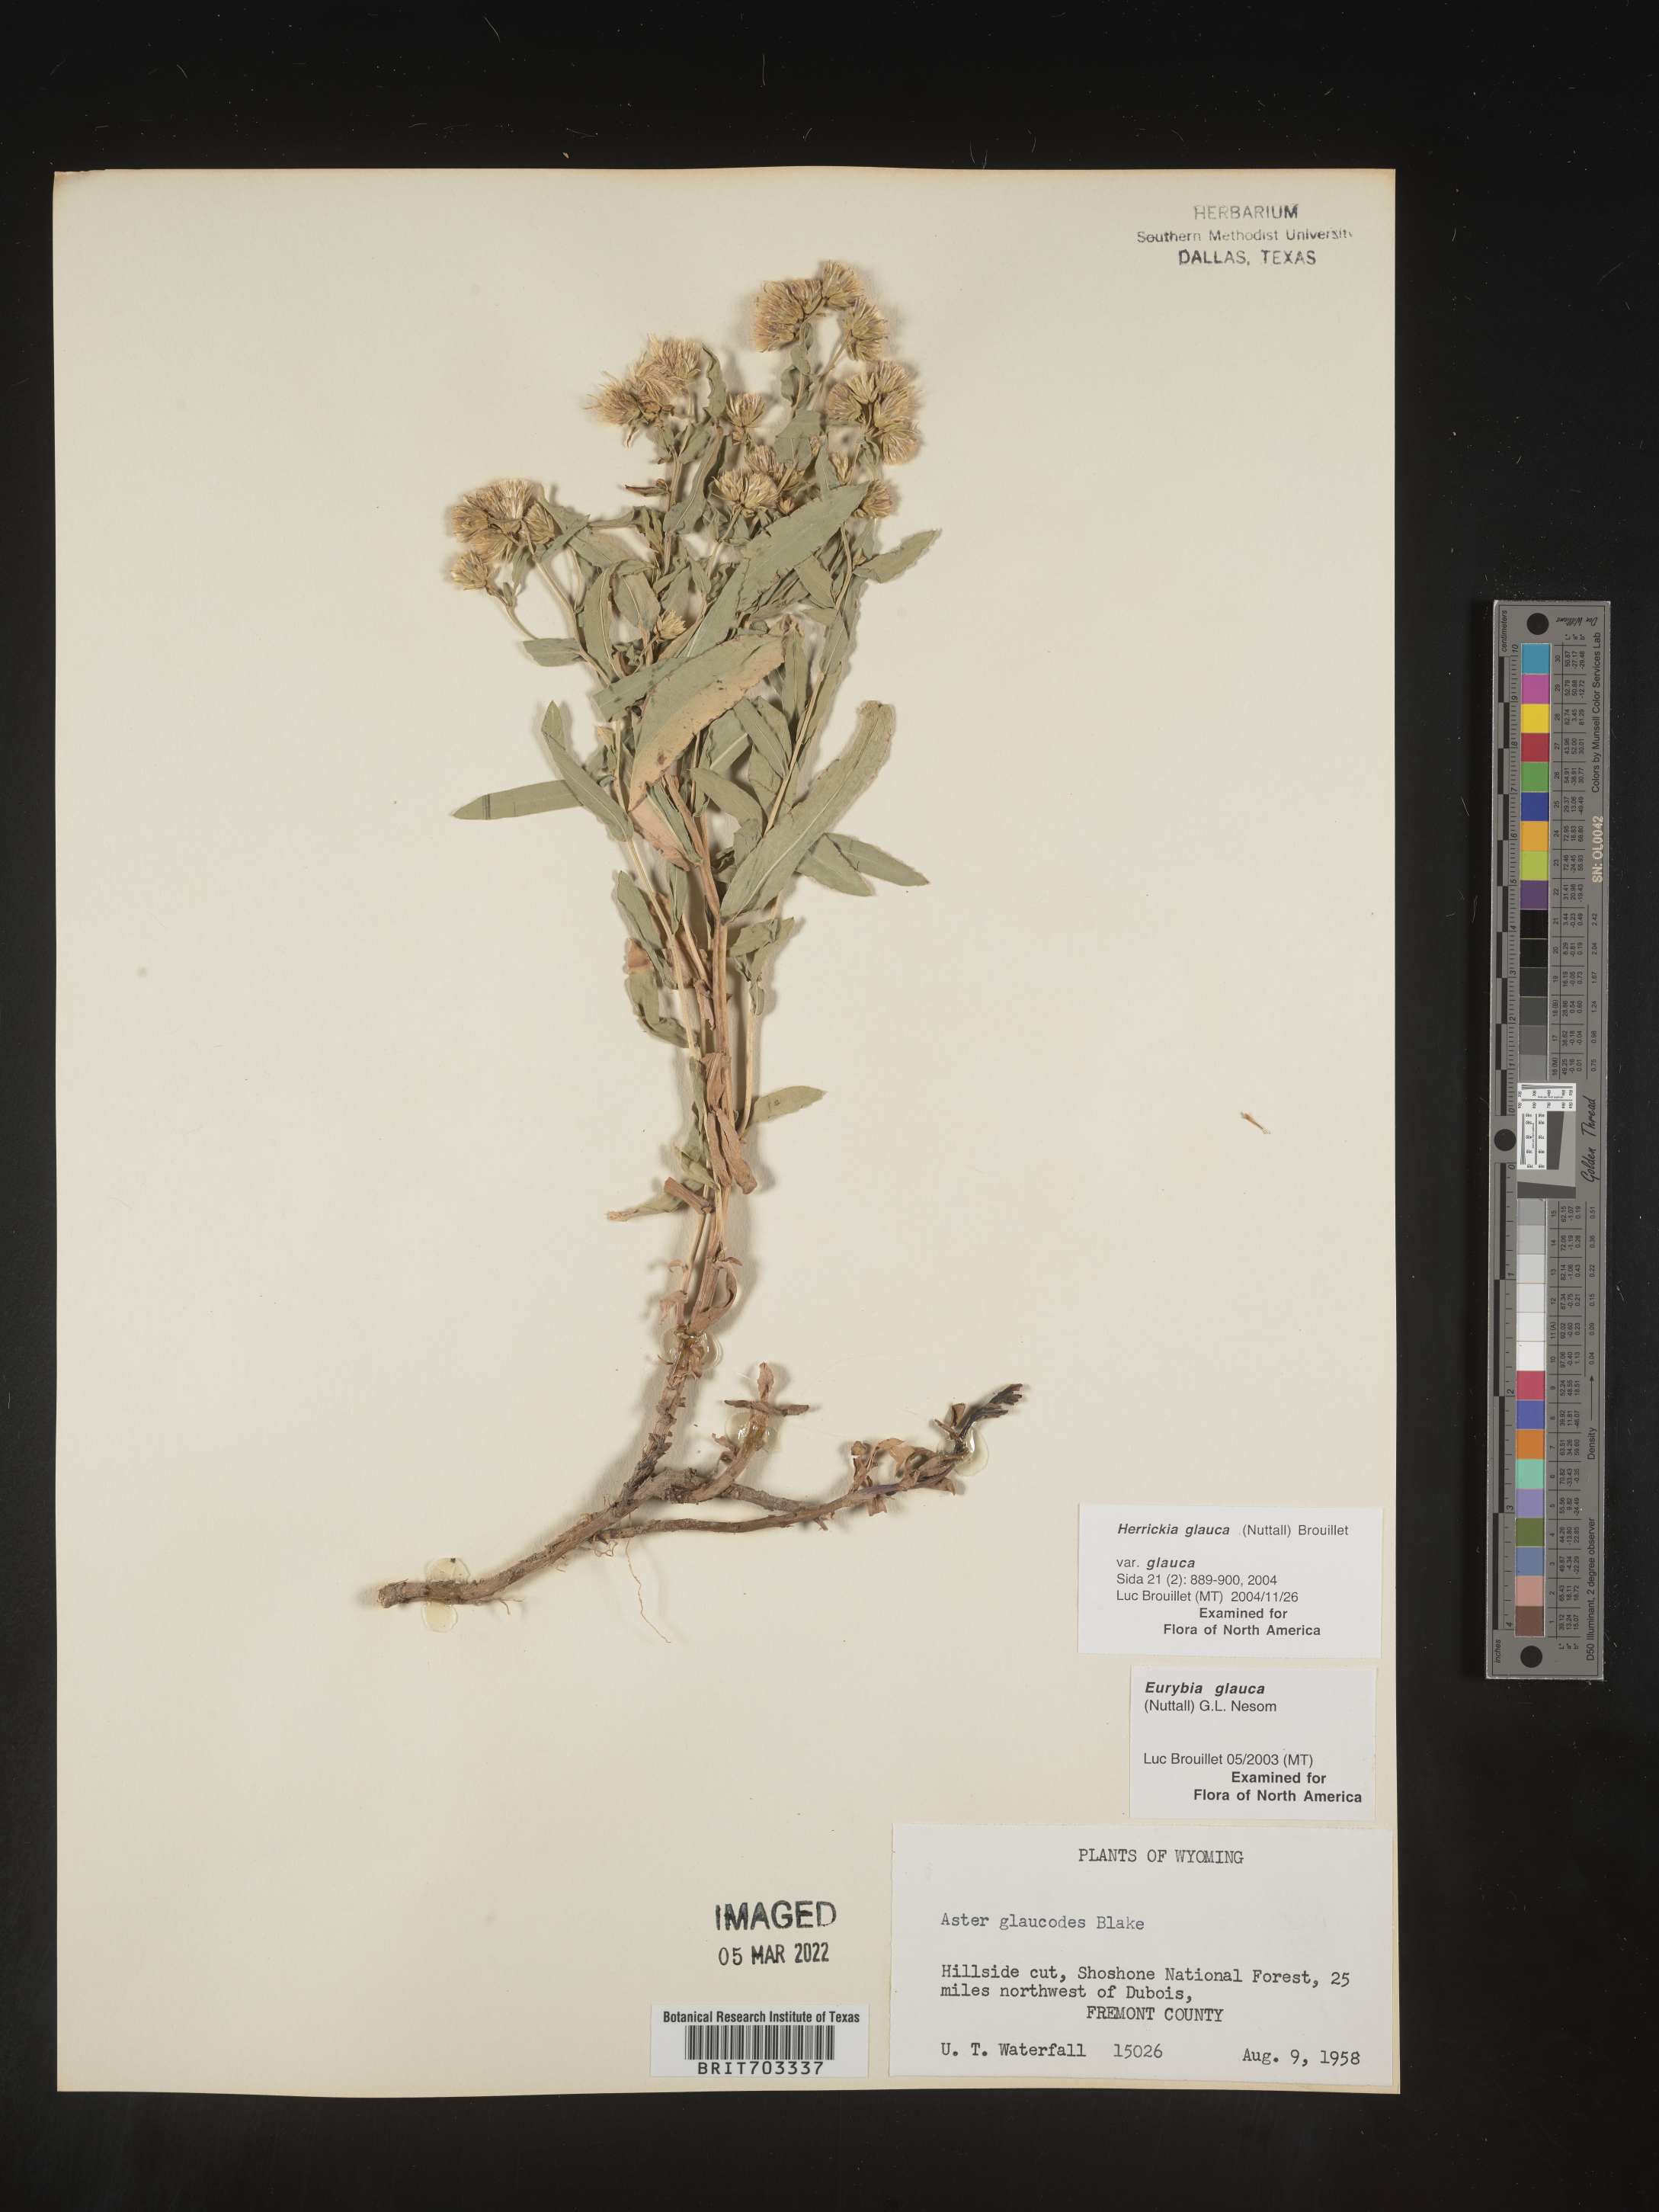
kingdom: Plantae
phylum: Tracheophyta
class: Magnoliopsida
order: Asterales
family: Asteraceae
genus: Eurybia
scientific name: Eurybia glauca
